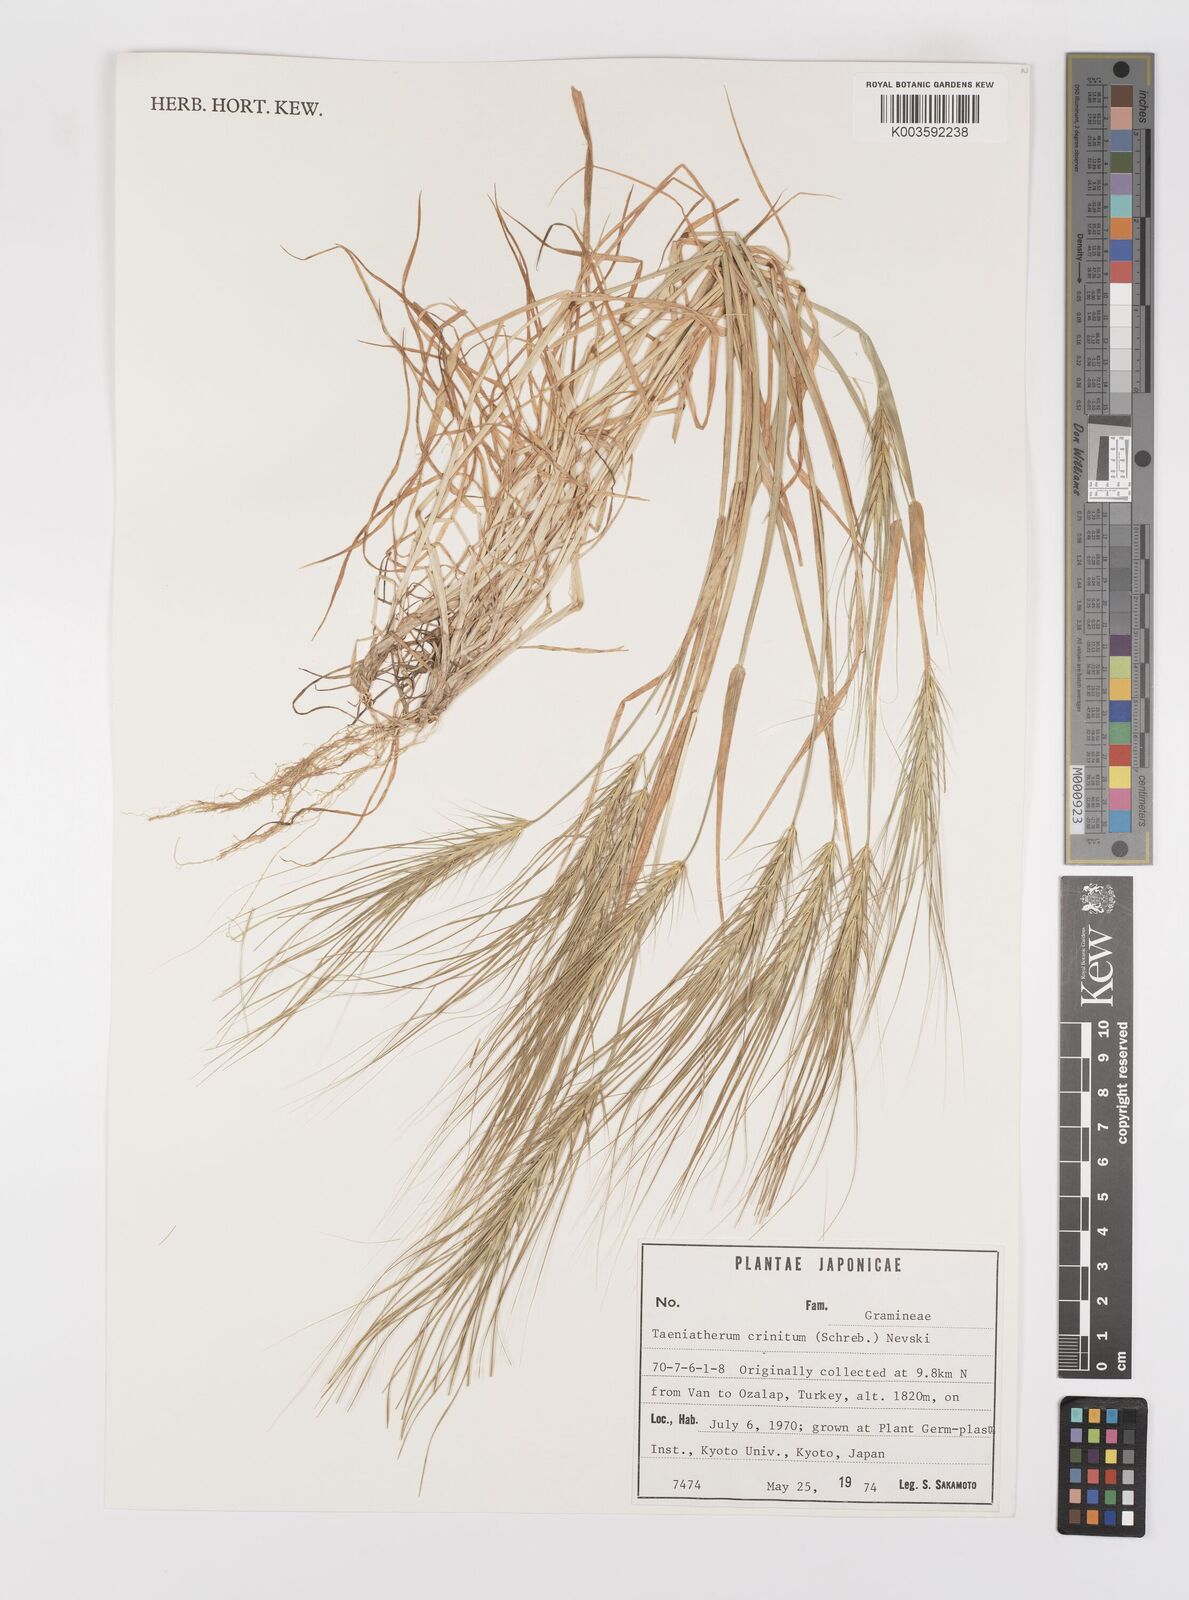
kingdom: Plantae
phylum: Tracheophyta
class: Liliopsida
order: Poales
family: Poaceae
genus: Taeniatherum
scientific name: Taeniatherum caput-medusae
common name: Medusahead
